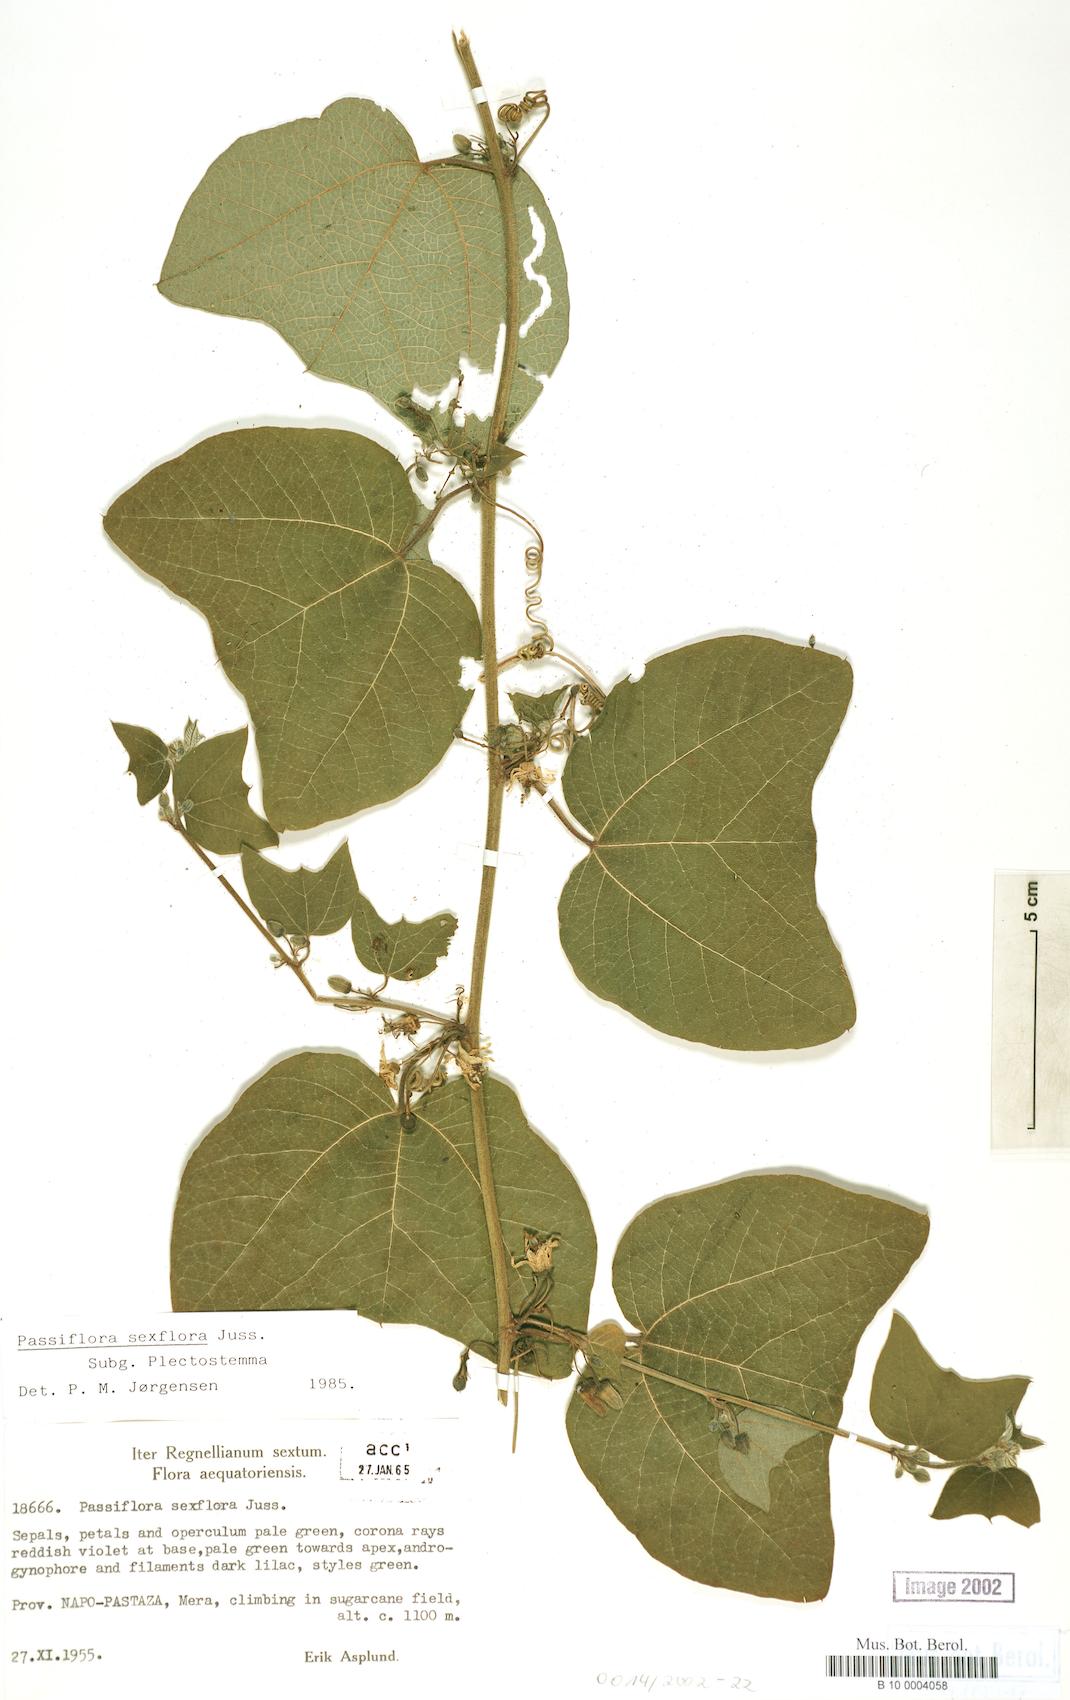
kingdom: Plantae
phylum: Tracheophyta
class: Magnoliopsida
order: Malpighiales
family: Passifloraceae
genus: Passiflora
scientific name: Passiflora sexflora
